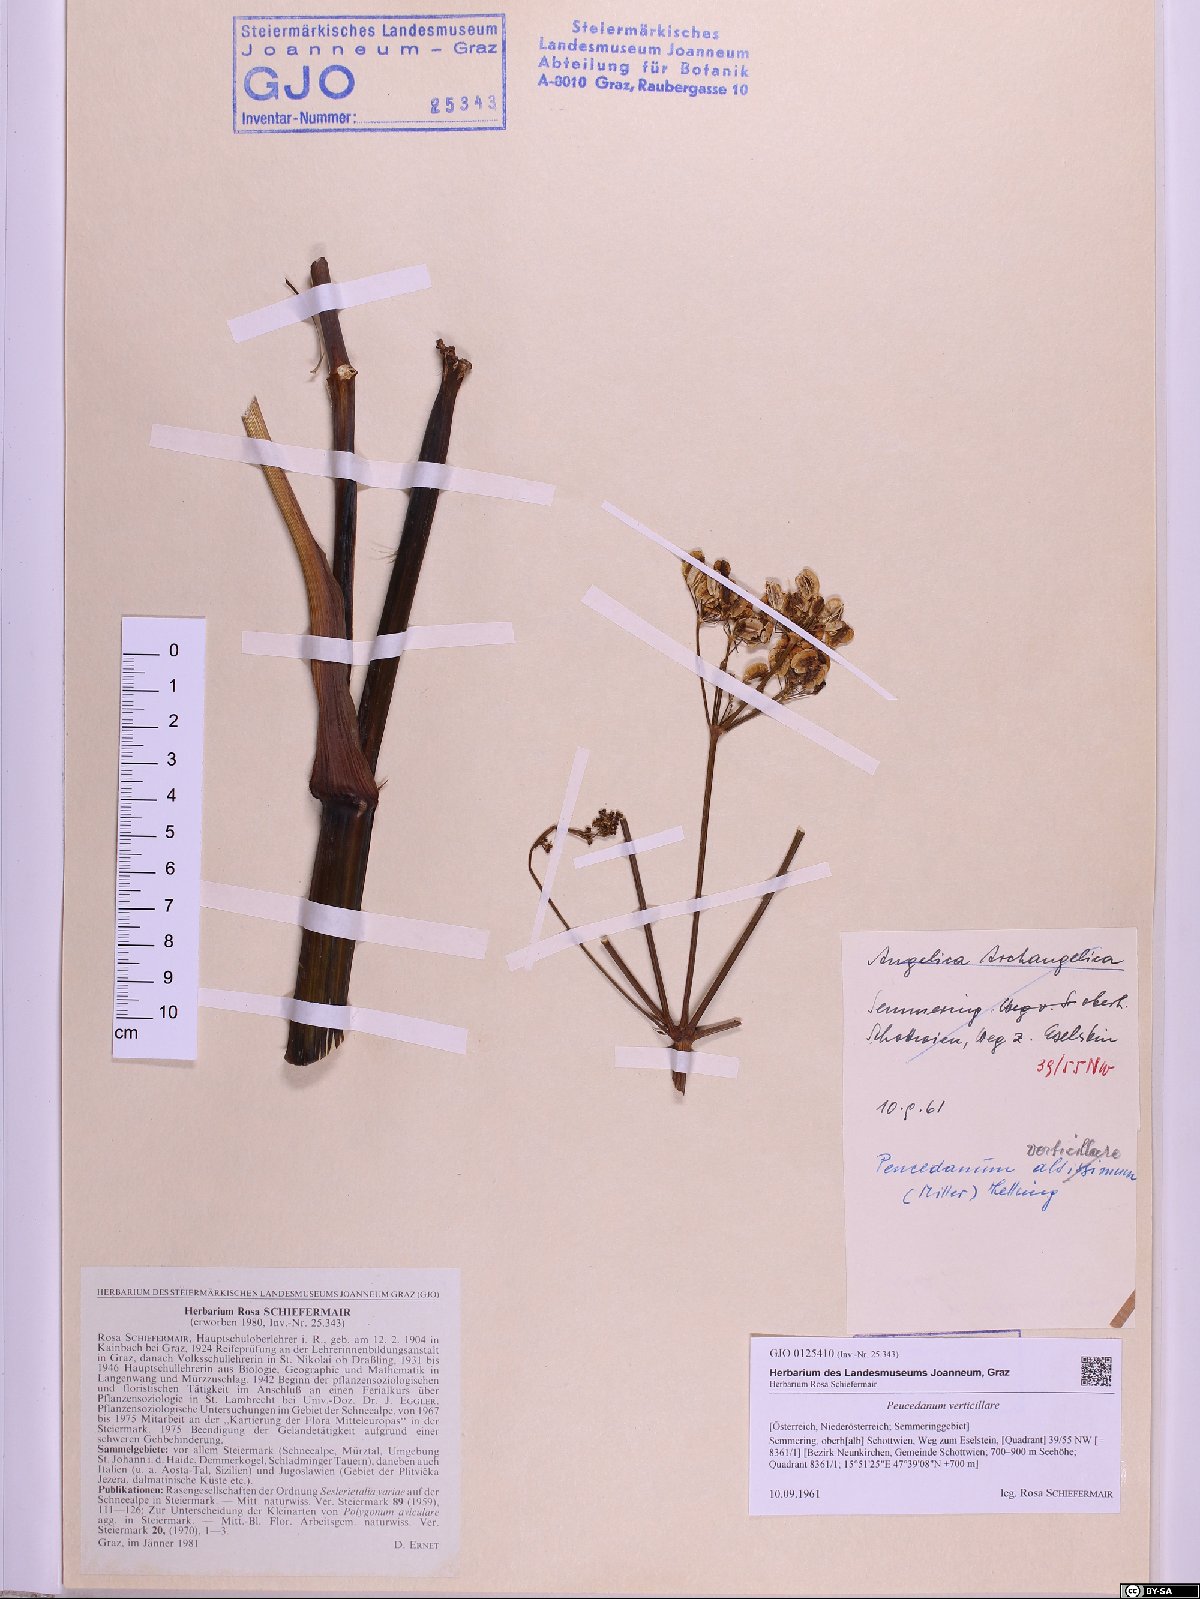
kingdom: Plantae
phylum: Tracheophyta
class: Magnoliopsida
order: Apiales
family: Apiaceae
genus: Tommasinia
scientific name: Tommasinia altissima
